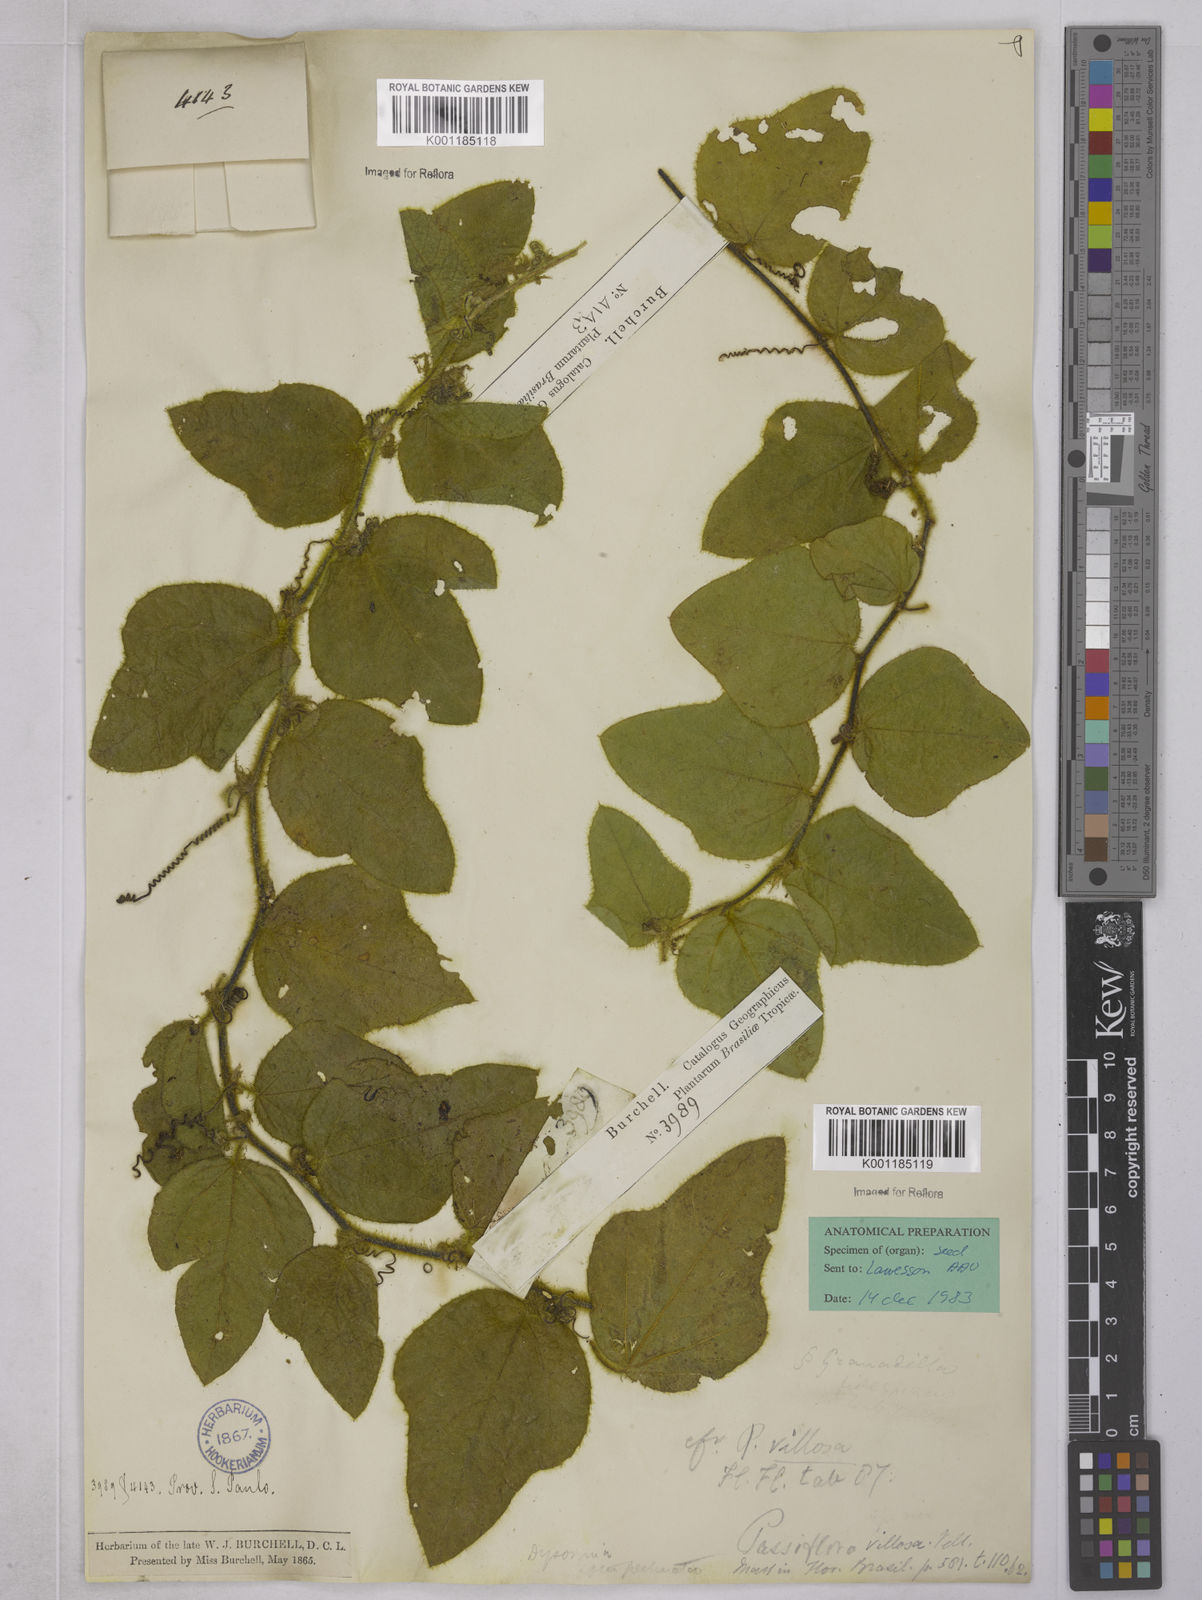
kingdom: Plantae
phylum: Tracheophyta
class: Magnoliopsida
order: Malpighiales
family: Passifloraceae
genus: Passiflora
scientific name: Passiflora villosa
